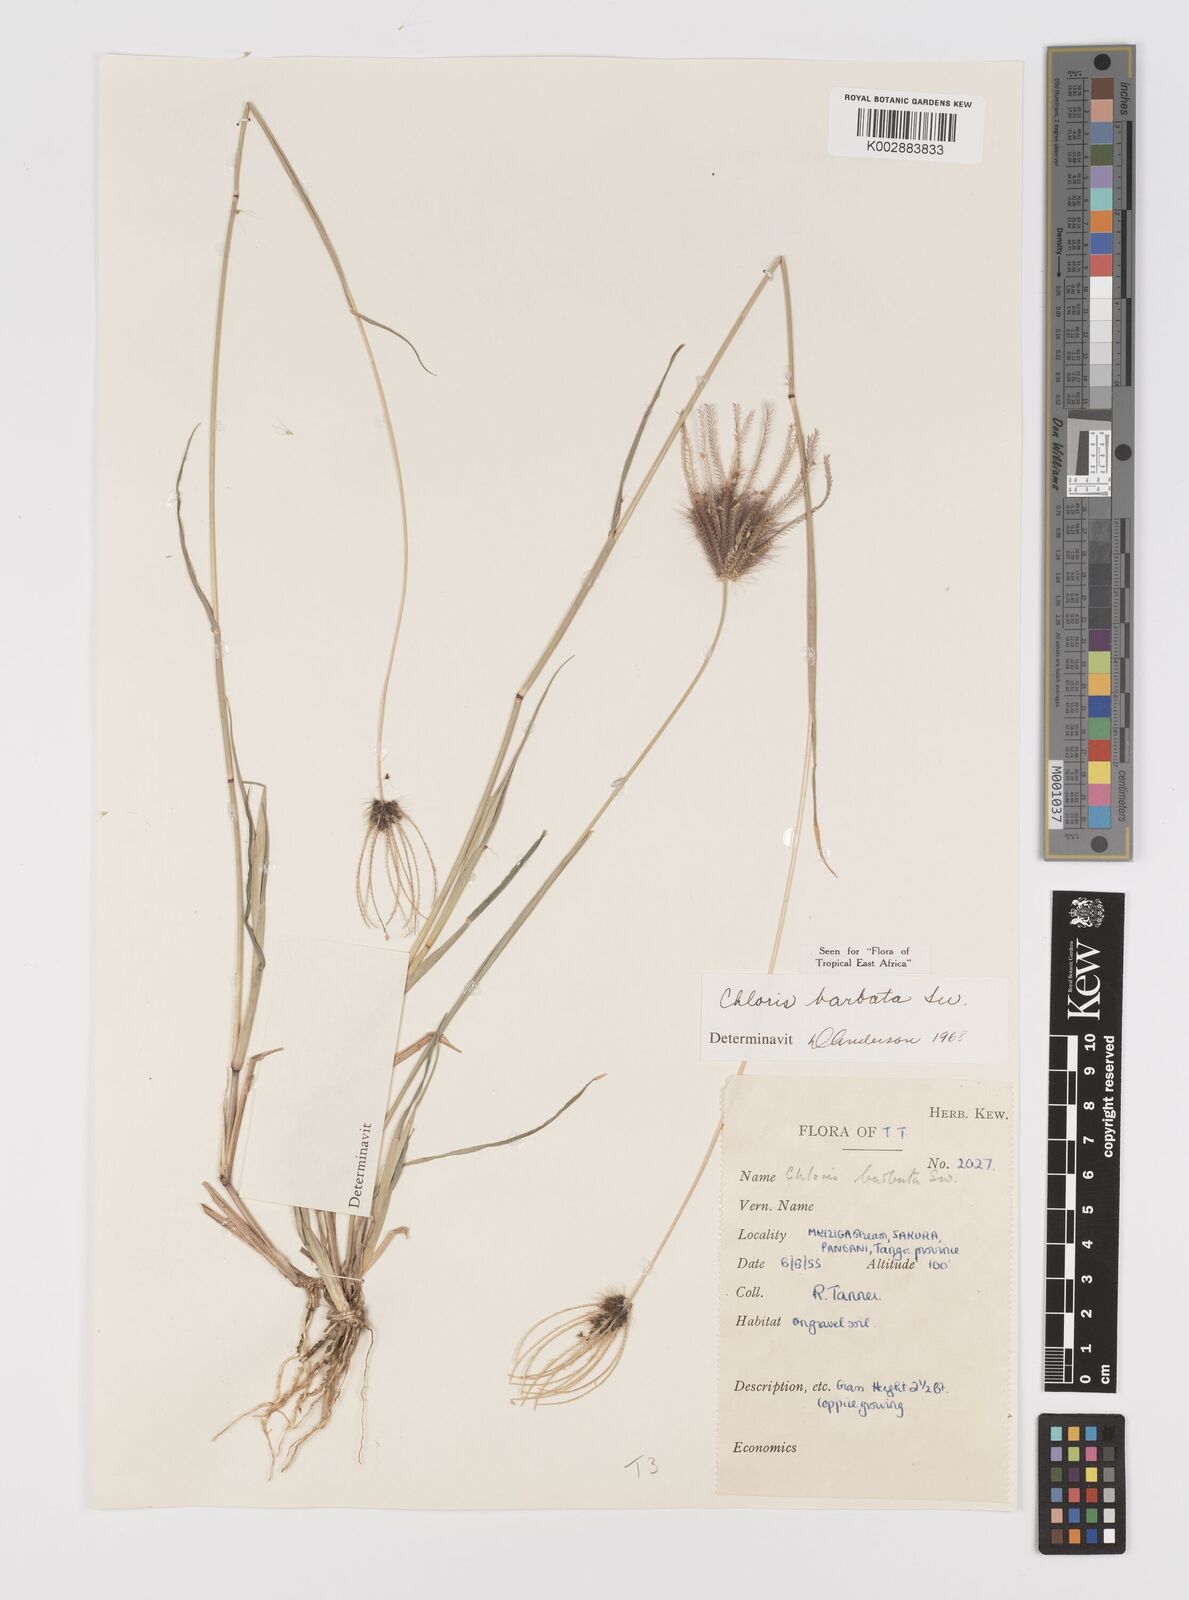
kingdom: Plantae
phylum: Tracheophyta
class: Liliopsida
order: Poales
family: Poaceae
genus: Chloris
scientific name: Chloris barbata
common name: Swollen fingergrass
